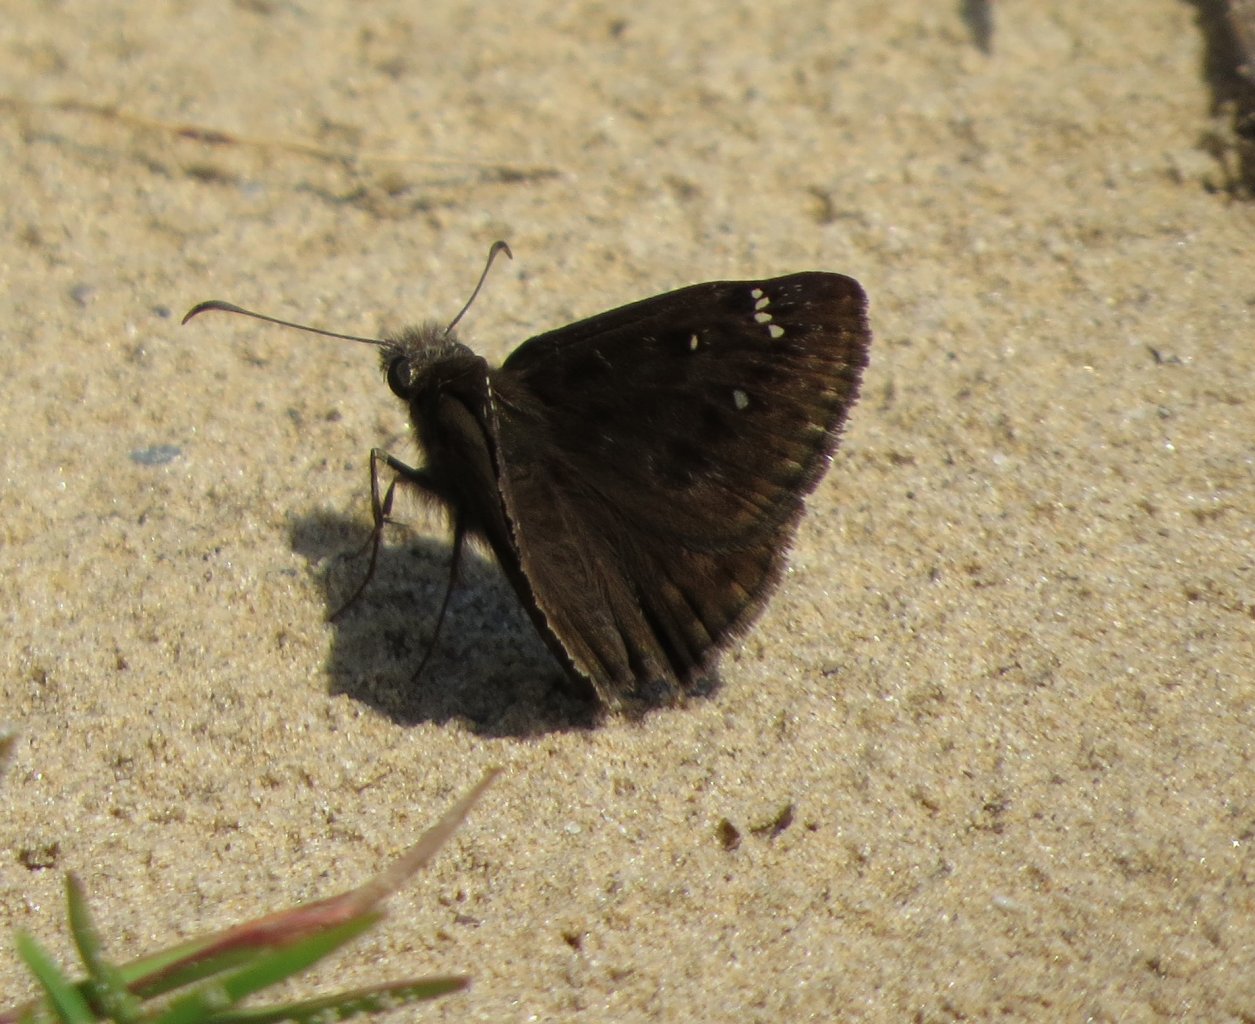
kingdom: Animalia
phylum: Arthropoda
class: Insecta
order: Lepidoptera
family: Hesperiidae
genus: Gesta
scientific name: Gesta
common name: Horace's Duskywing
